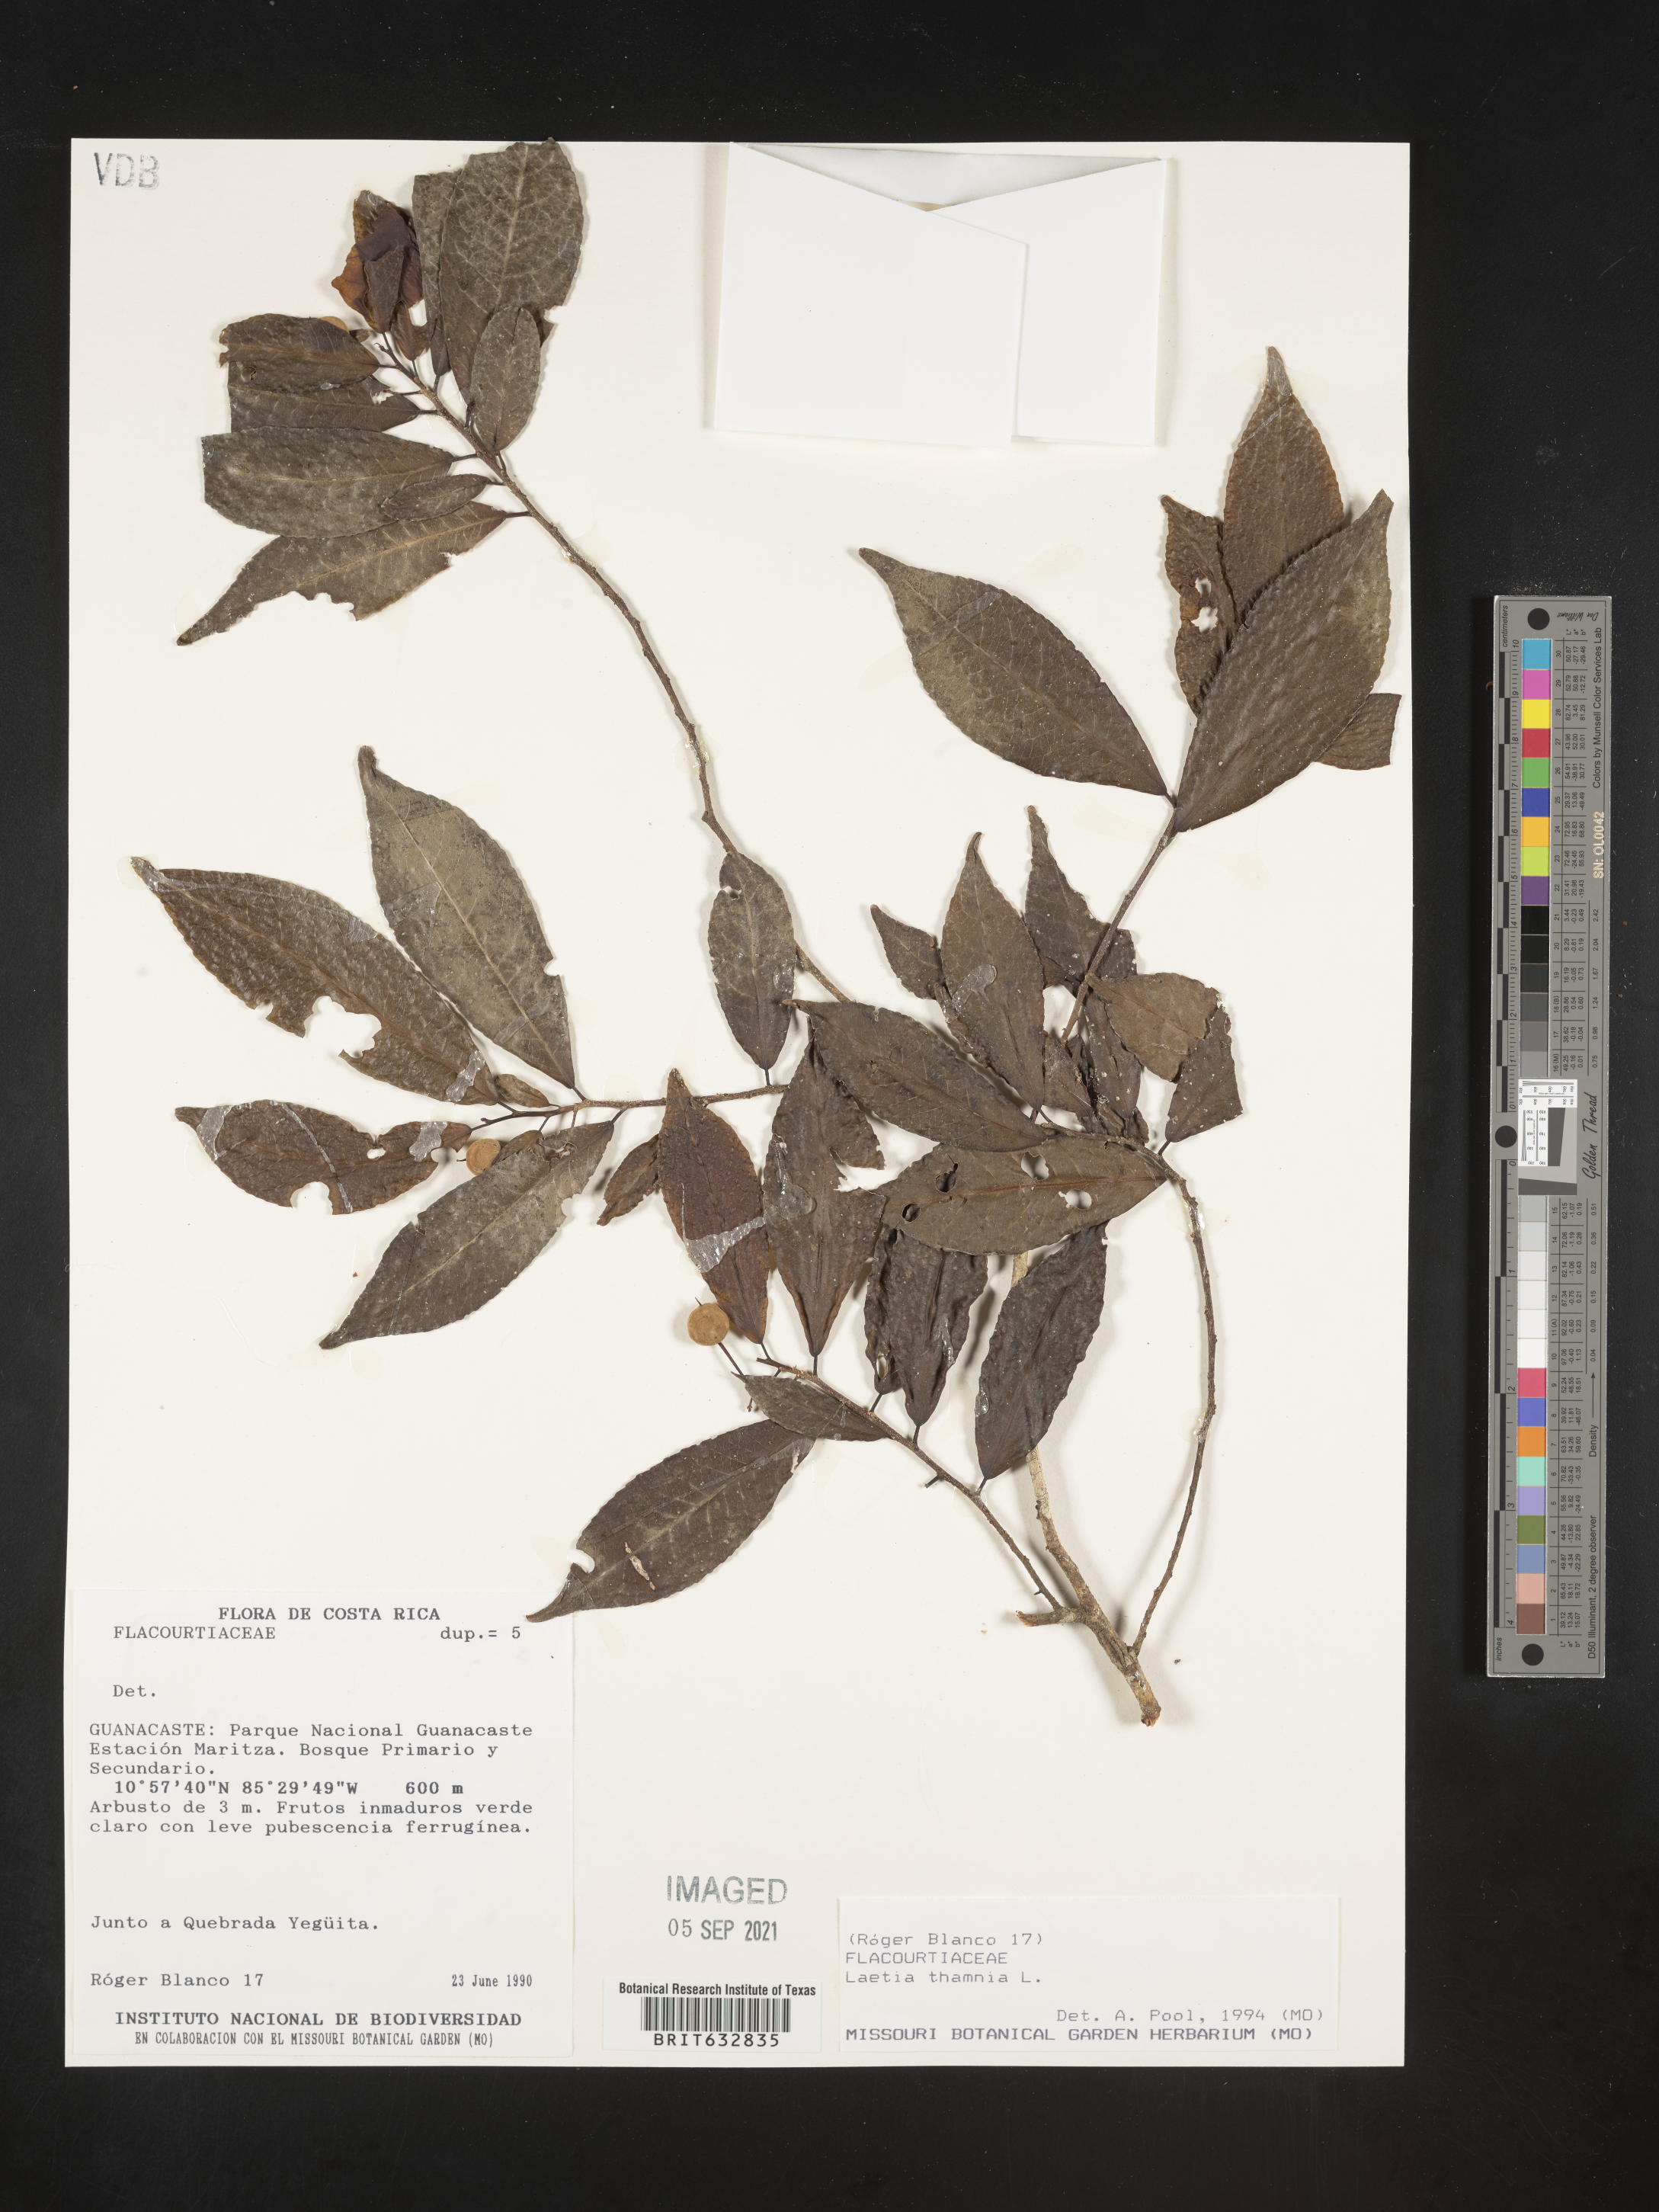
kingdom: Plantae
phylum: Tracheophyta
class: Magnoliopsida
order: Malpighiales
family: Flacourtiaceae
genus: Laetia
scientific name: Laetia
